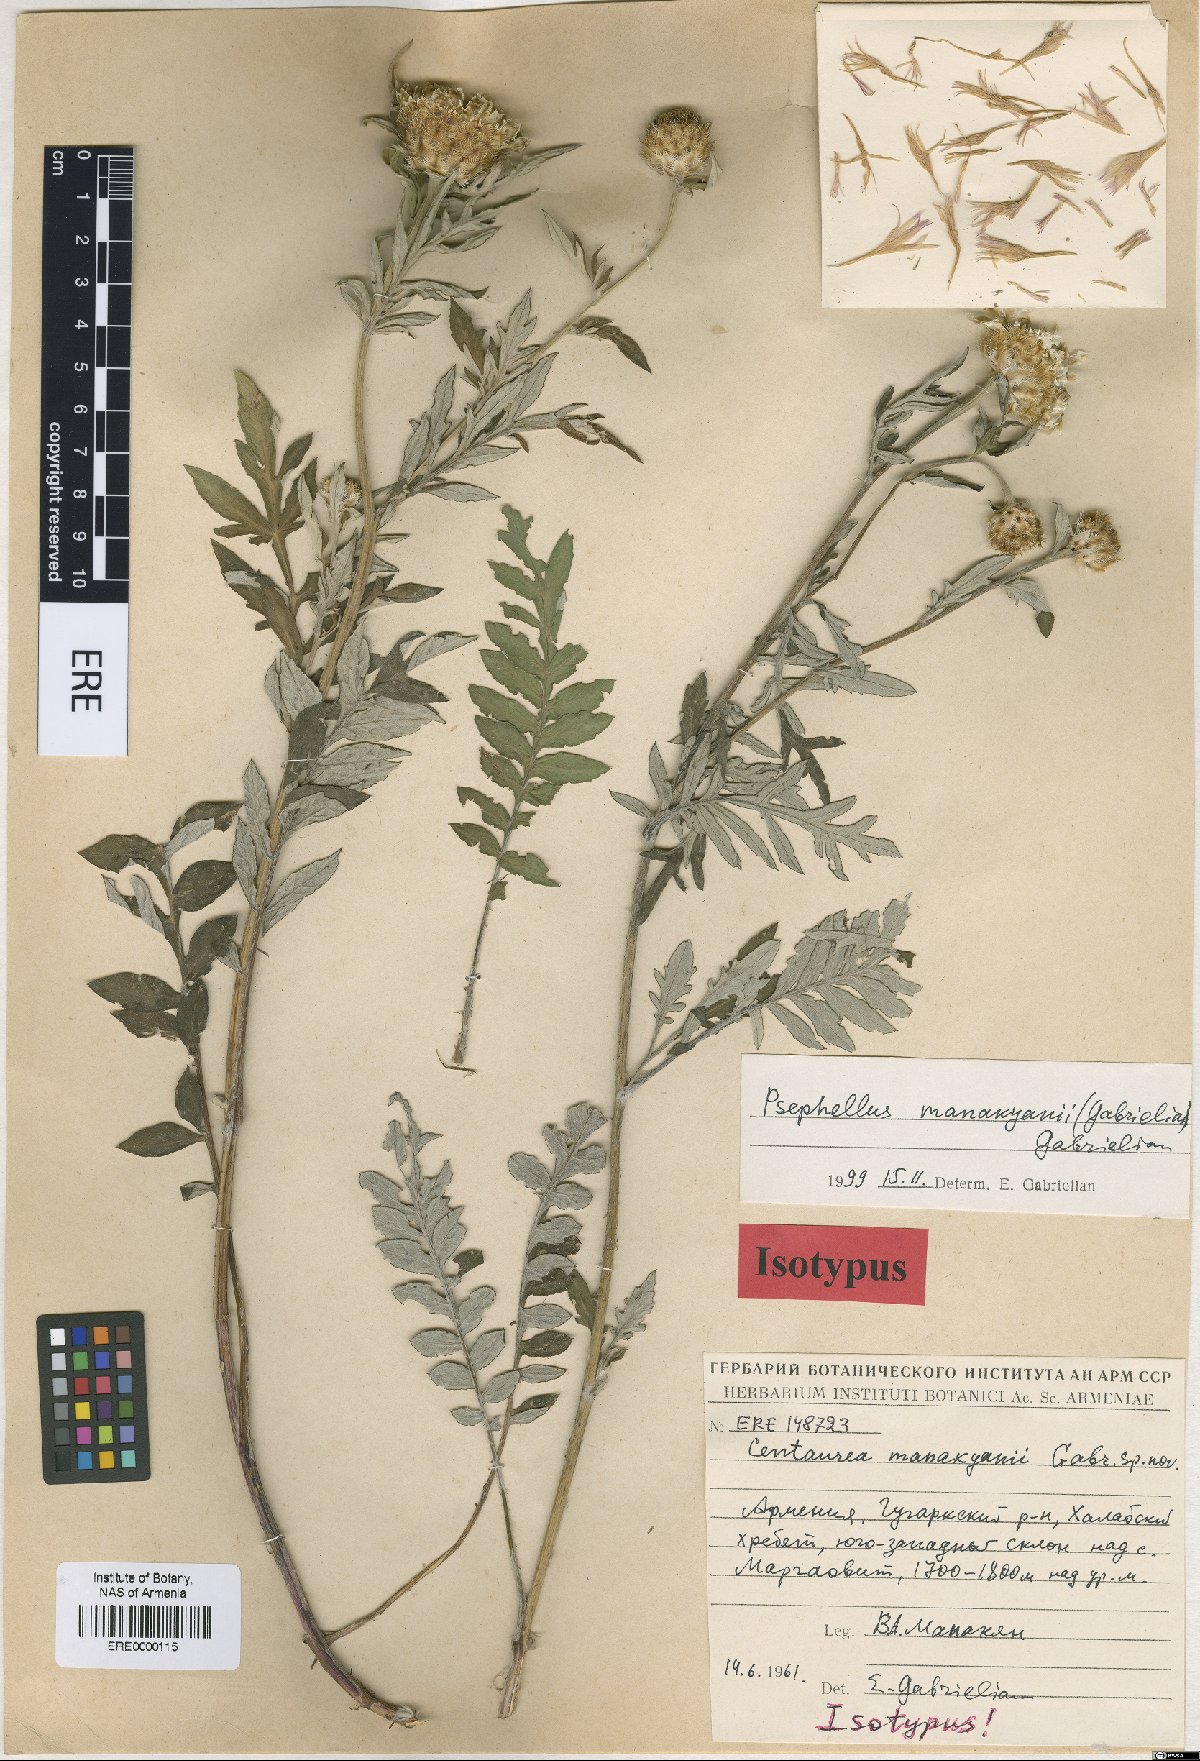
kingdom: Plantae
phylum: Tracheophyta
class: Magnoliopsida
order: Asterales
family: Asteraceae
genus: Psephellus
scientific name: Psephellus manakianii
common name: Manakyan's cornflower
